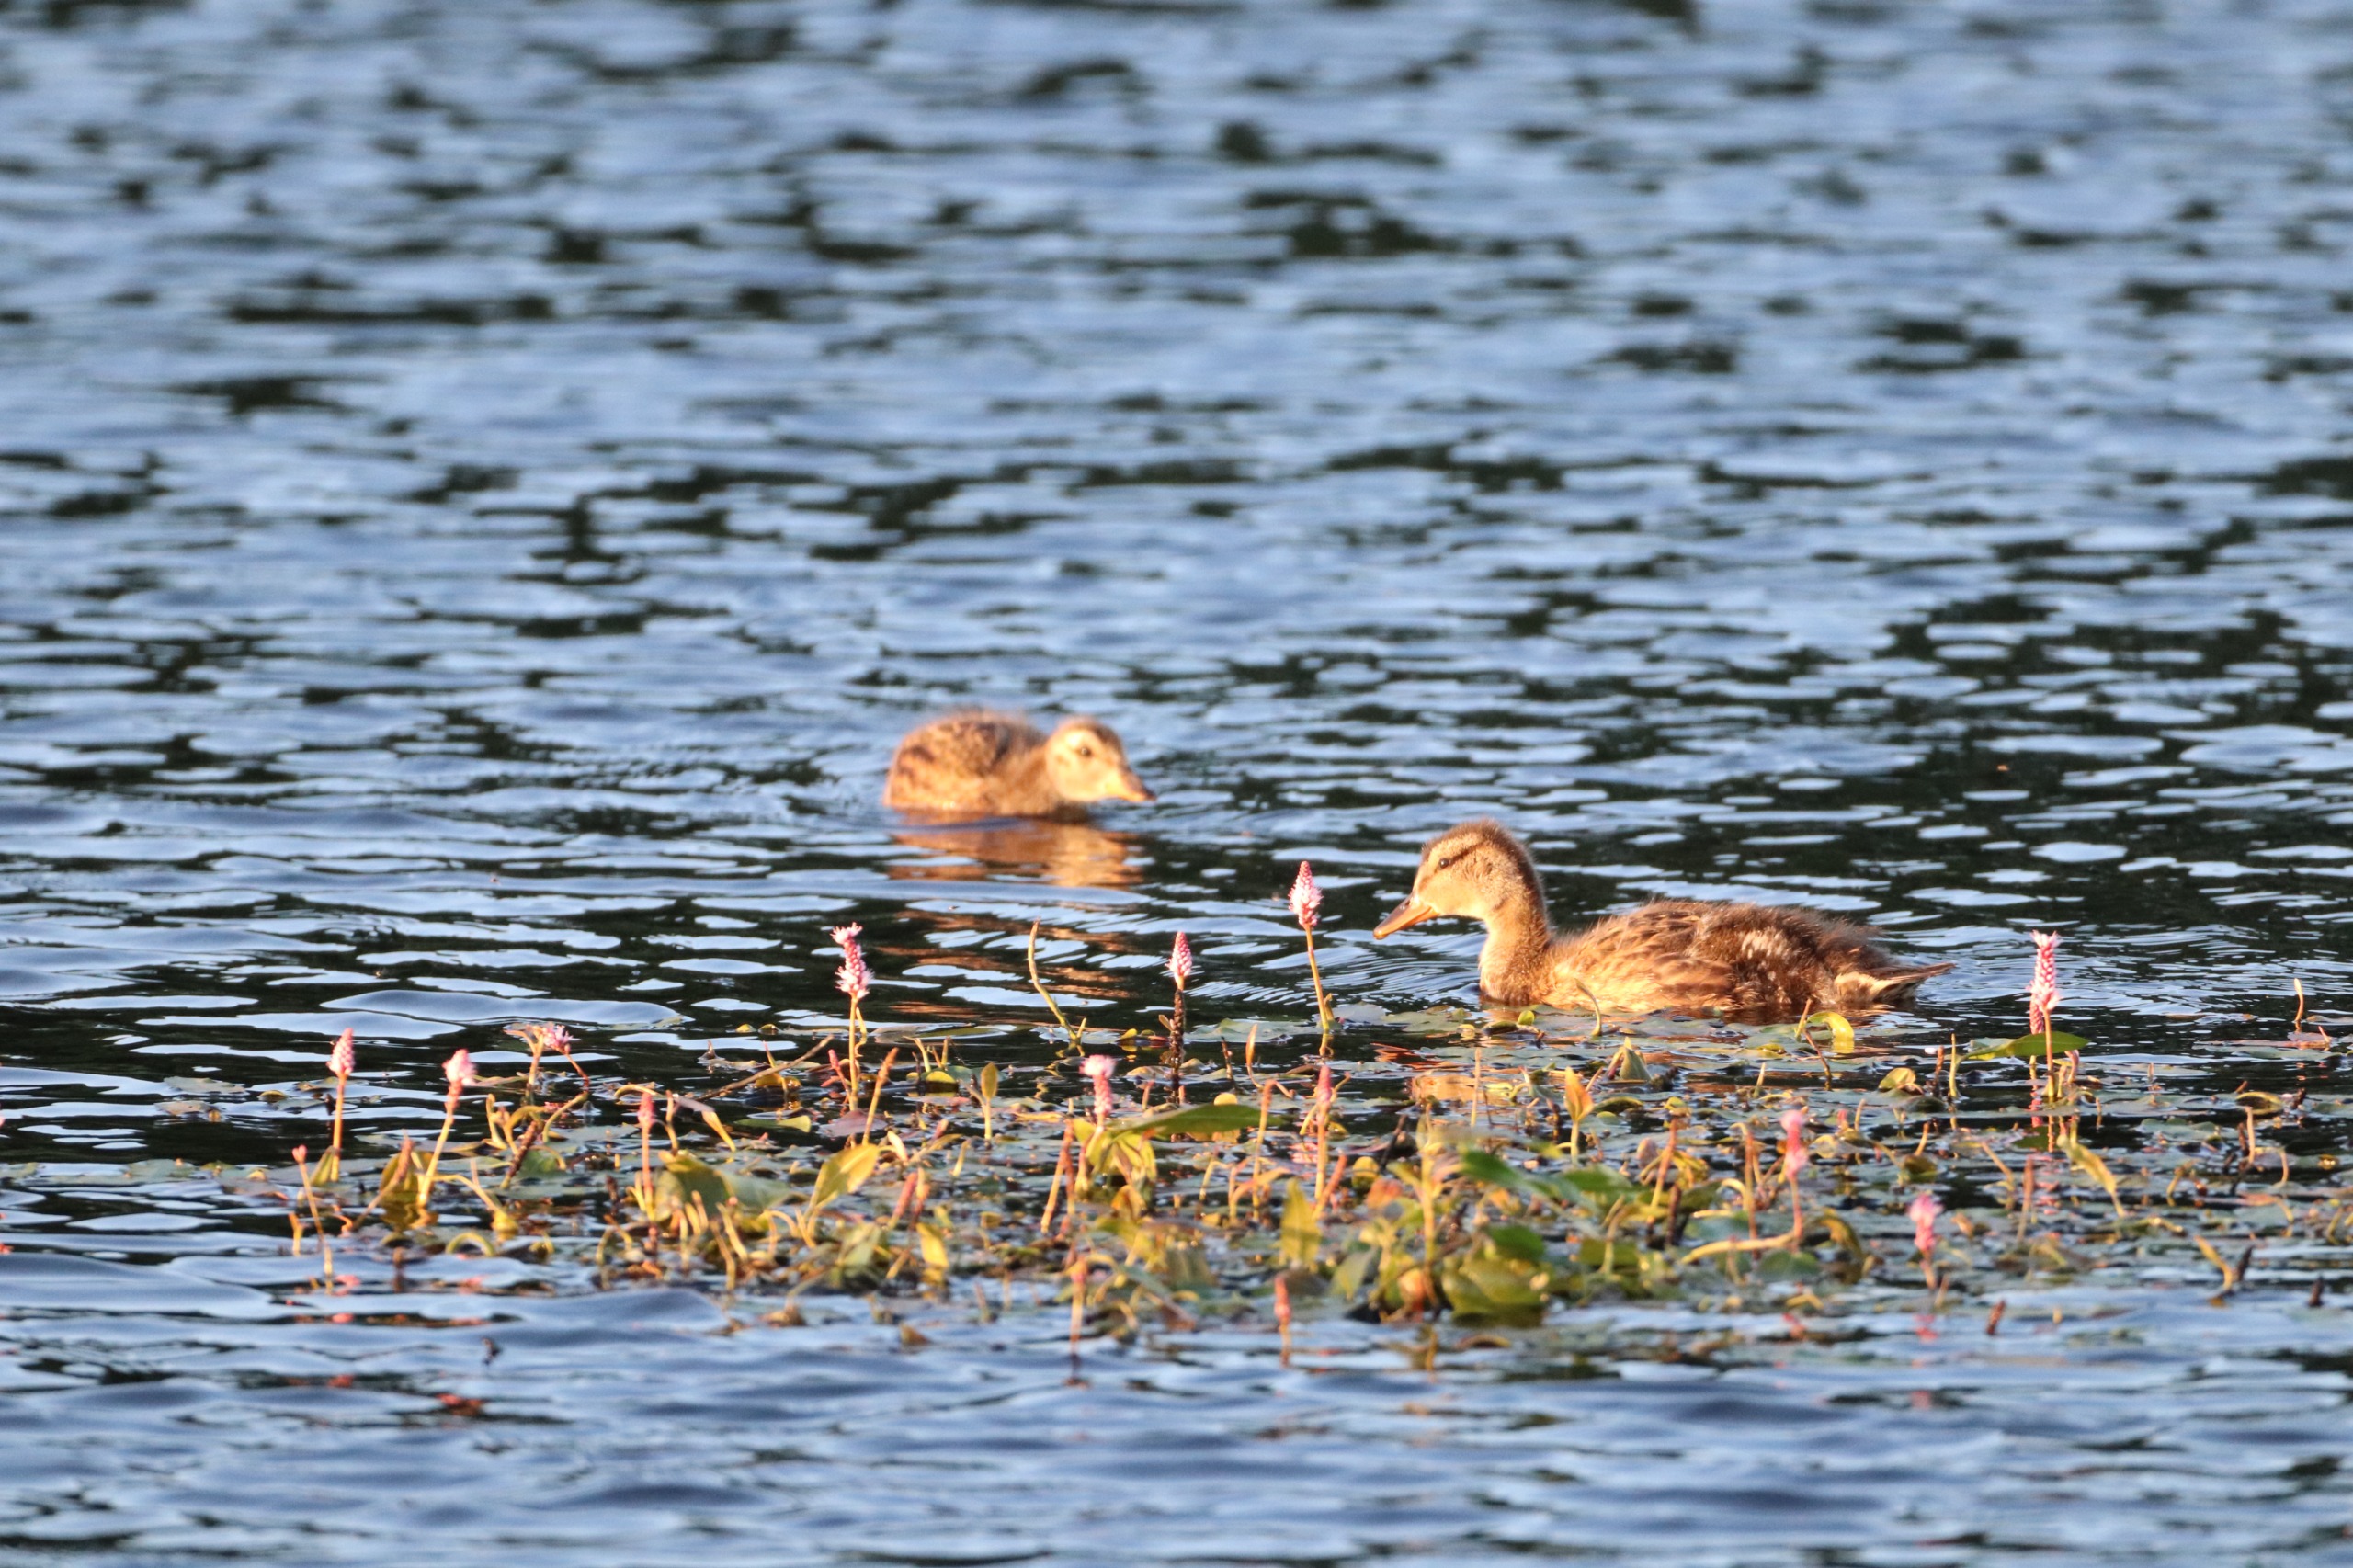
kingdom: Animalia
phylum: Chordata
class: Aves
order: Anseriformes
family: Anatidae
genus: Mareca
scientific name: Mareca strepera
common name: Knarand
